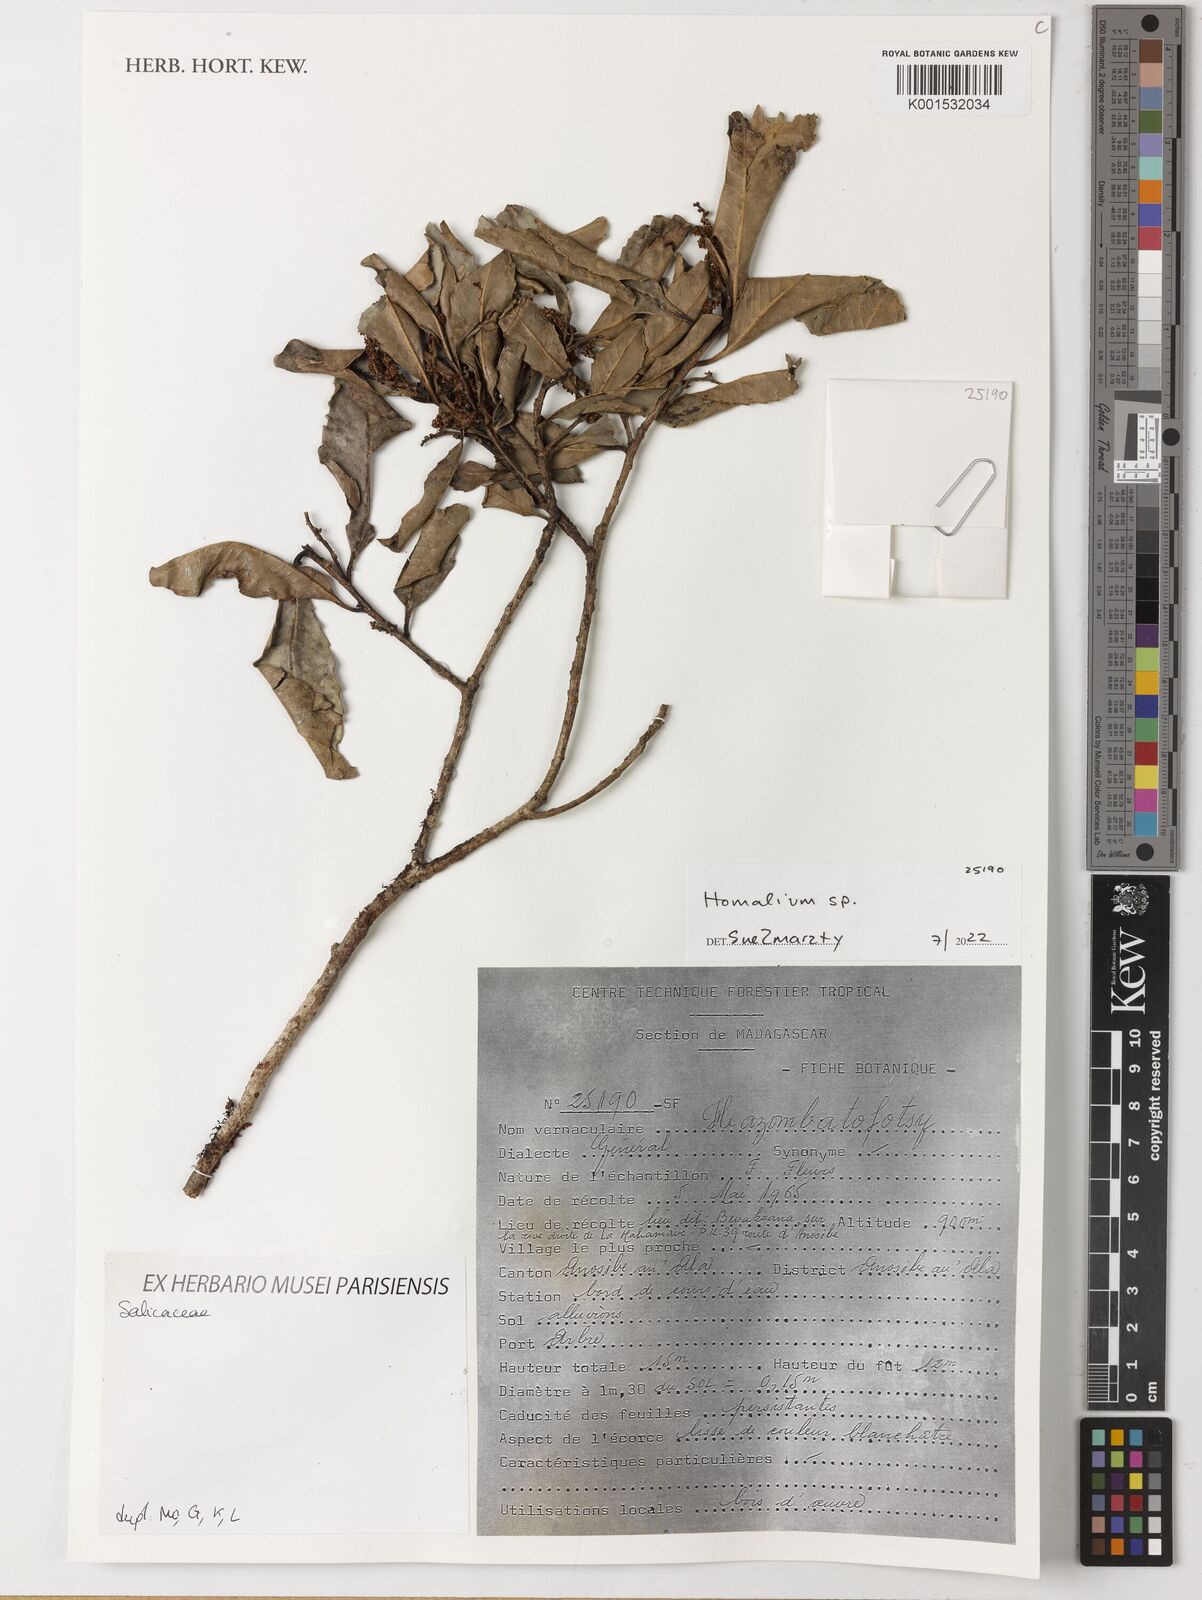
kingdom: Plantae
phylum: Tracheophyta
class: Magnoliopsida
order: Malpighiales
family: Salicaceae
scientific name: Salicaceae
